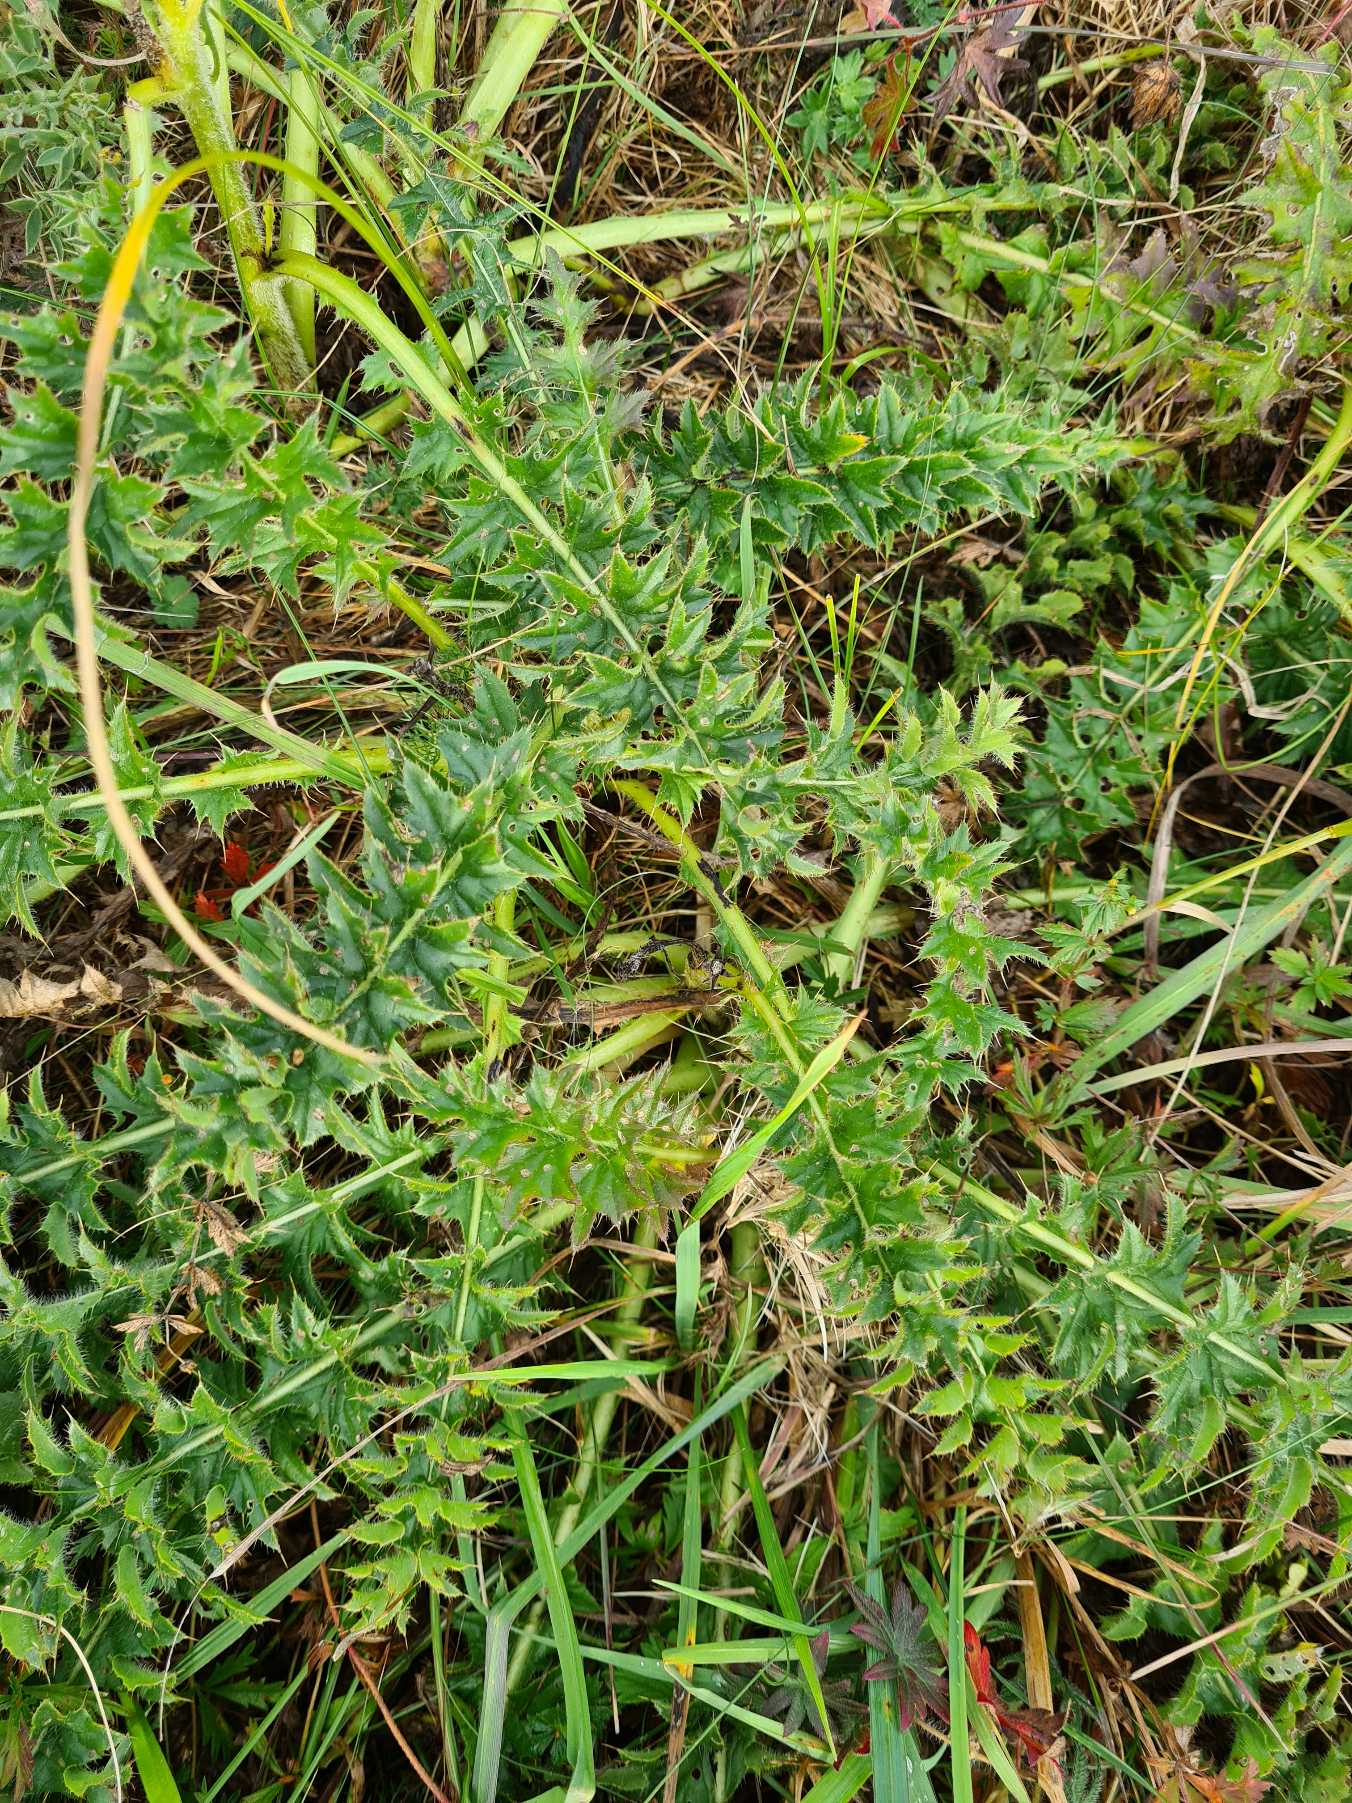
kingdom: Plantae
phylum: Tracheophyta
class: Magnoliopsida
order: Asterales
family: Asteraceae
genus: Cirsium
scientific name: Cirsium acaule
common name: Lav tidsel
